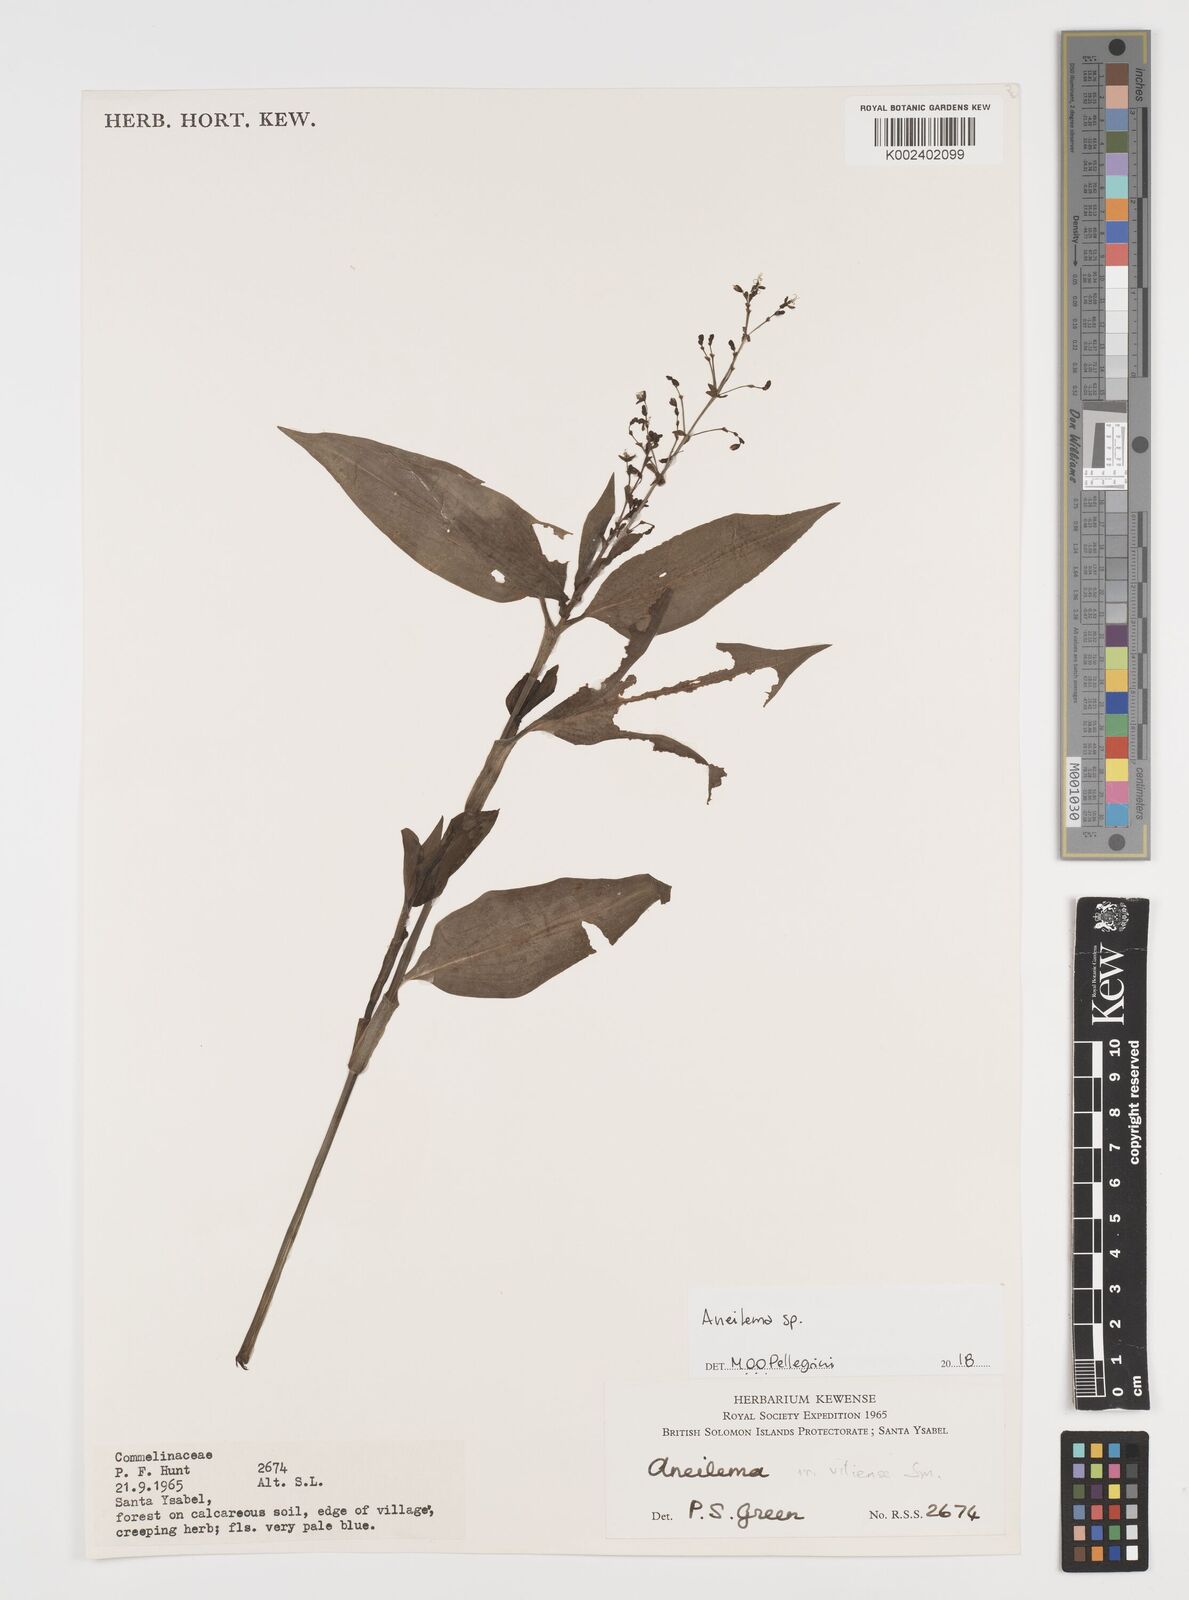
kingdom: Plantae
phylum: Tracheophyta
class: Liliopsida
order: Commelinales
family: Commelinaceae
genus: Aneilema
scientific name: Aneilema acuminatum
